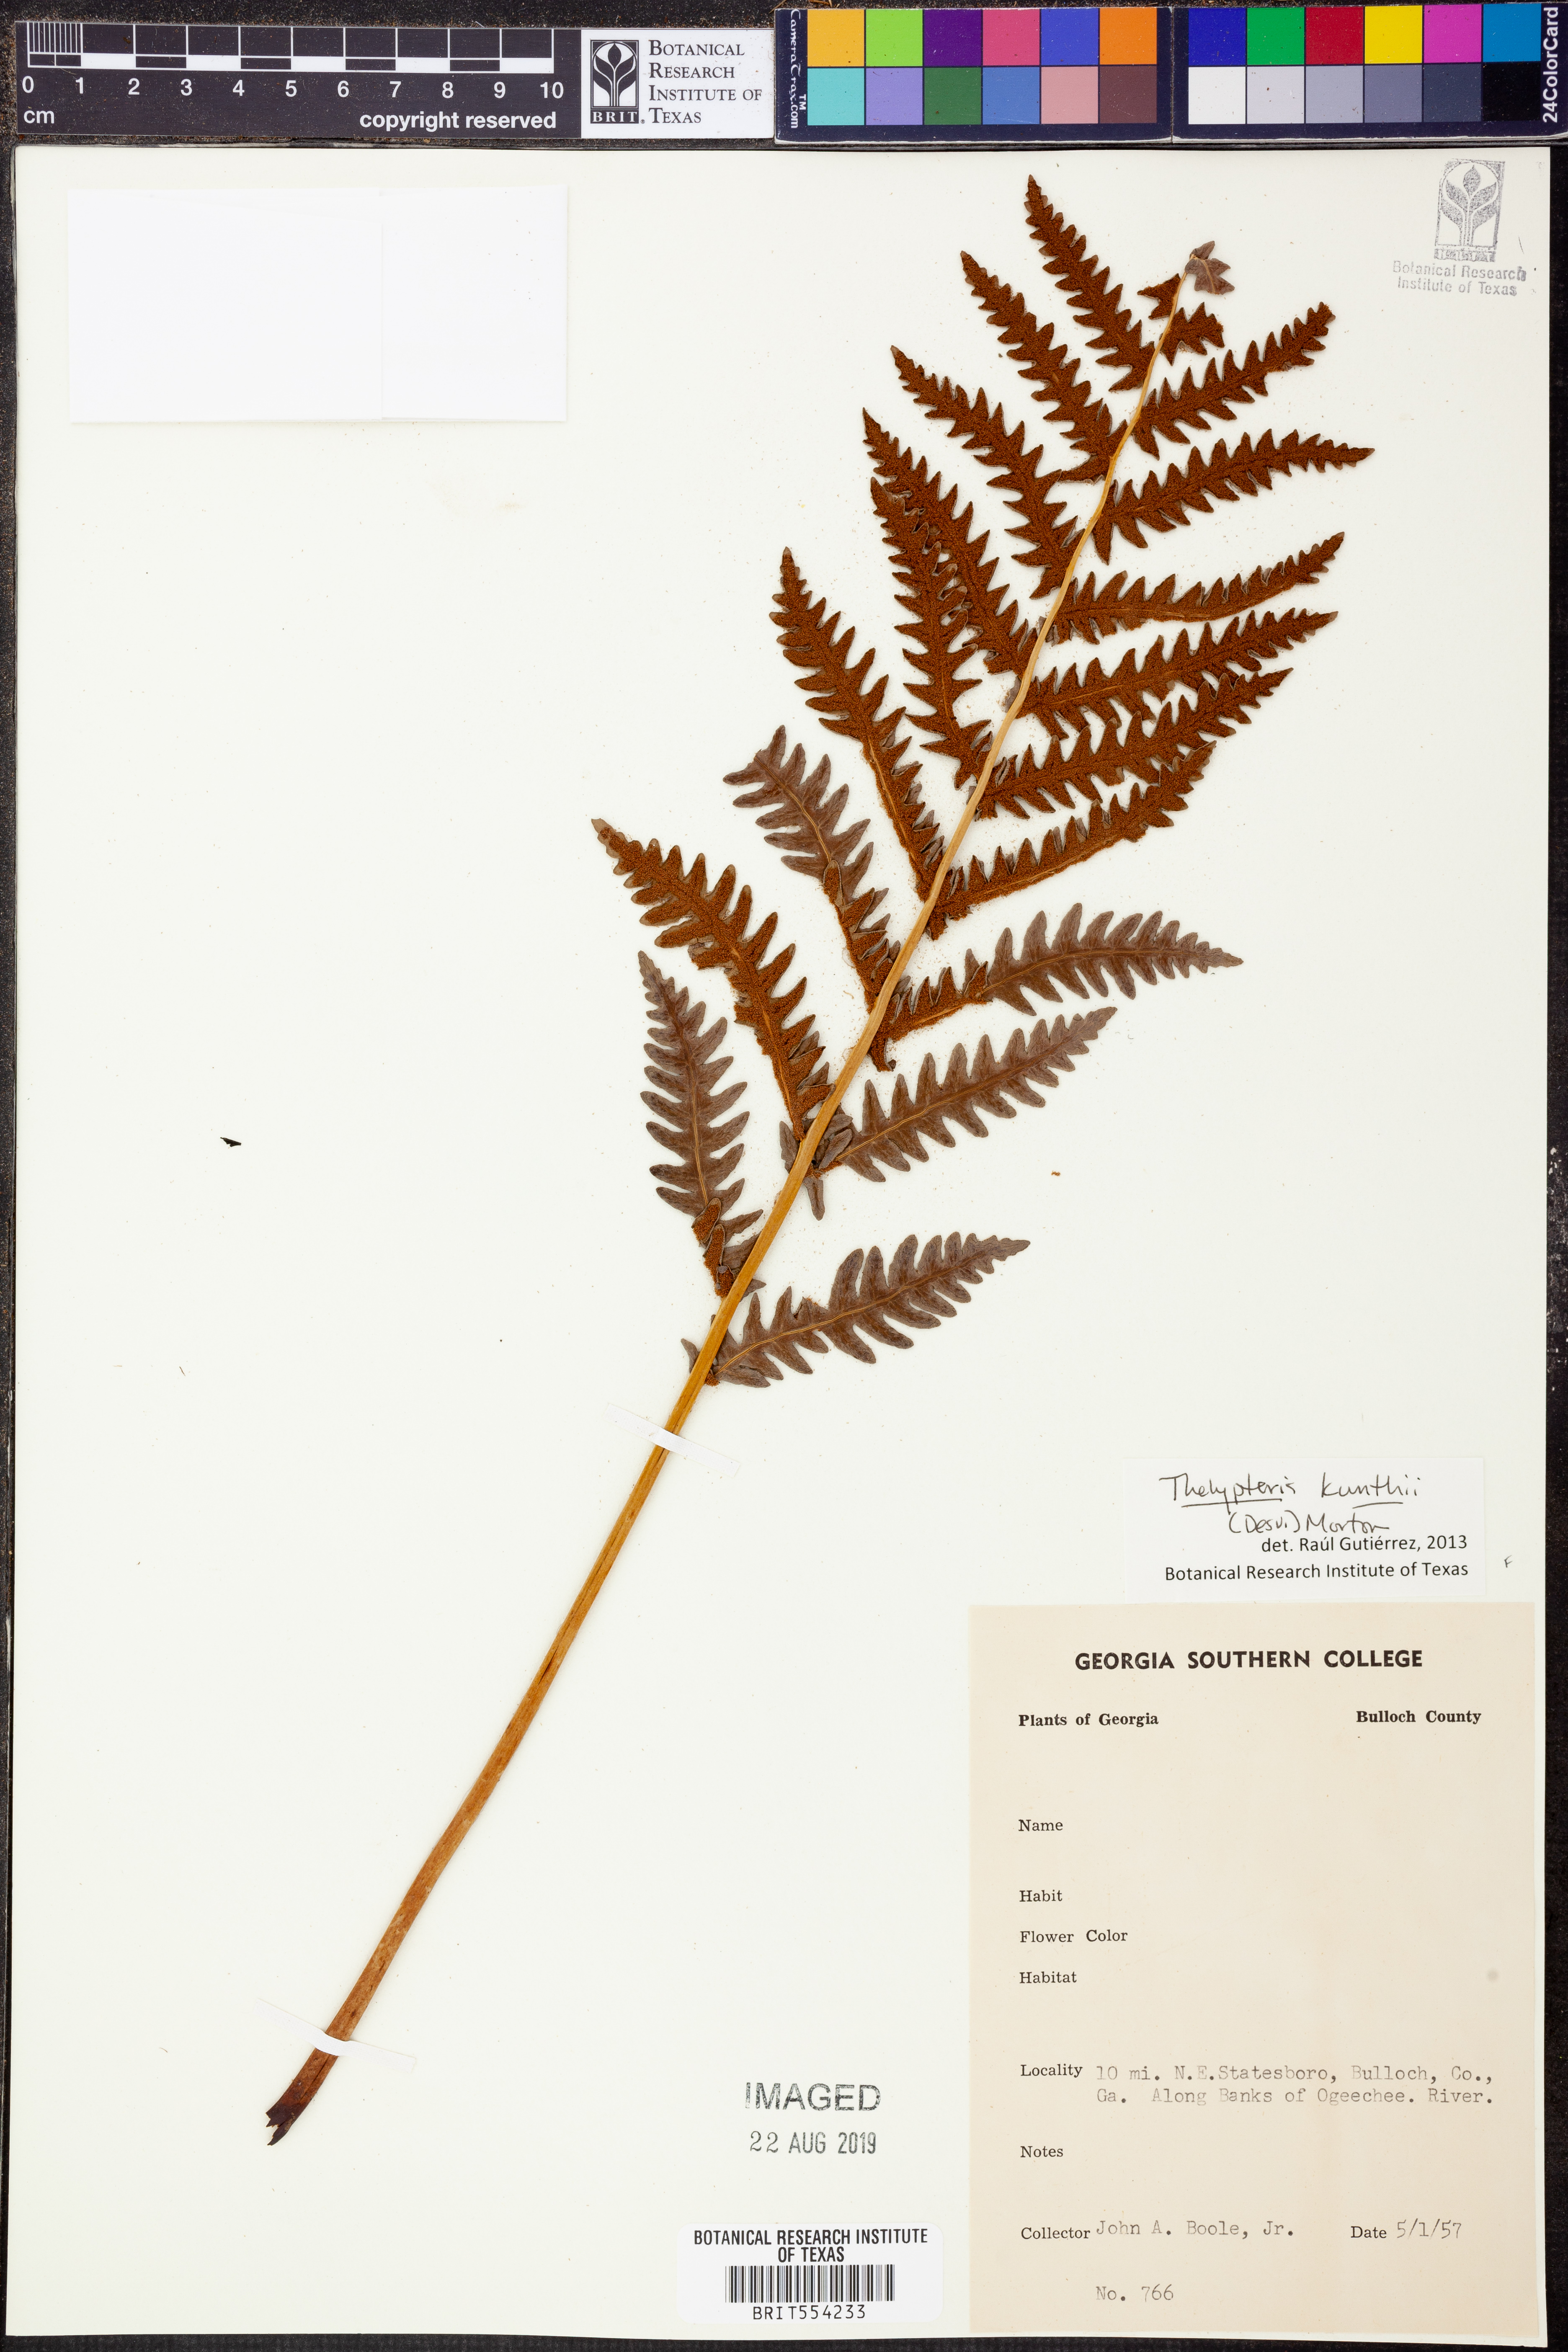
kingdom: Plantae
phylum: Tracheophyta
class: Polypodiopsida
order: Polypodiales
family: Thelypteridaceae
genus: Pelazoneuron
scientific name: Pelazoneuron kunthii
